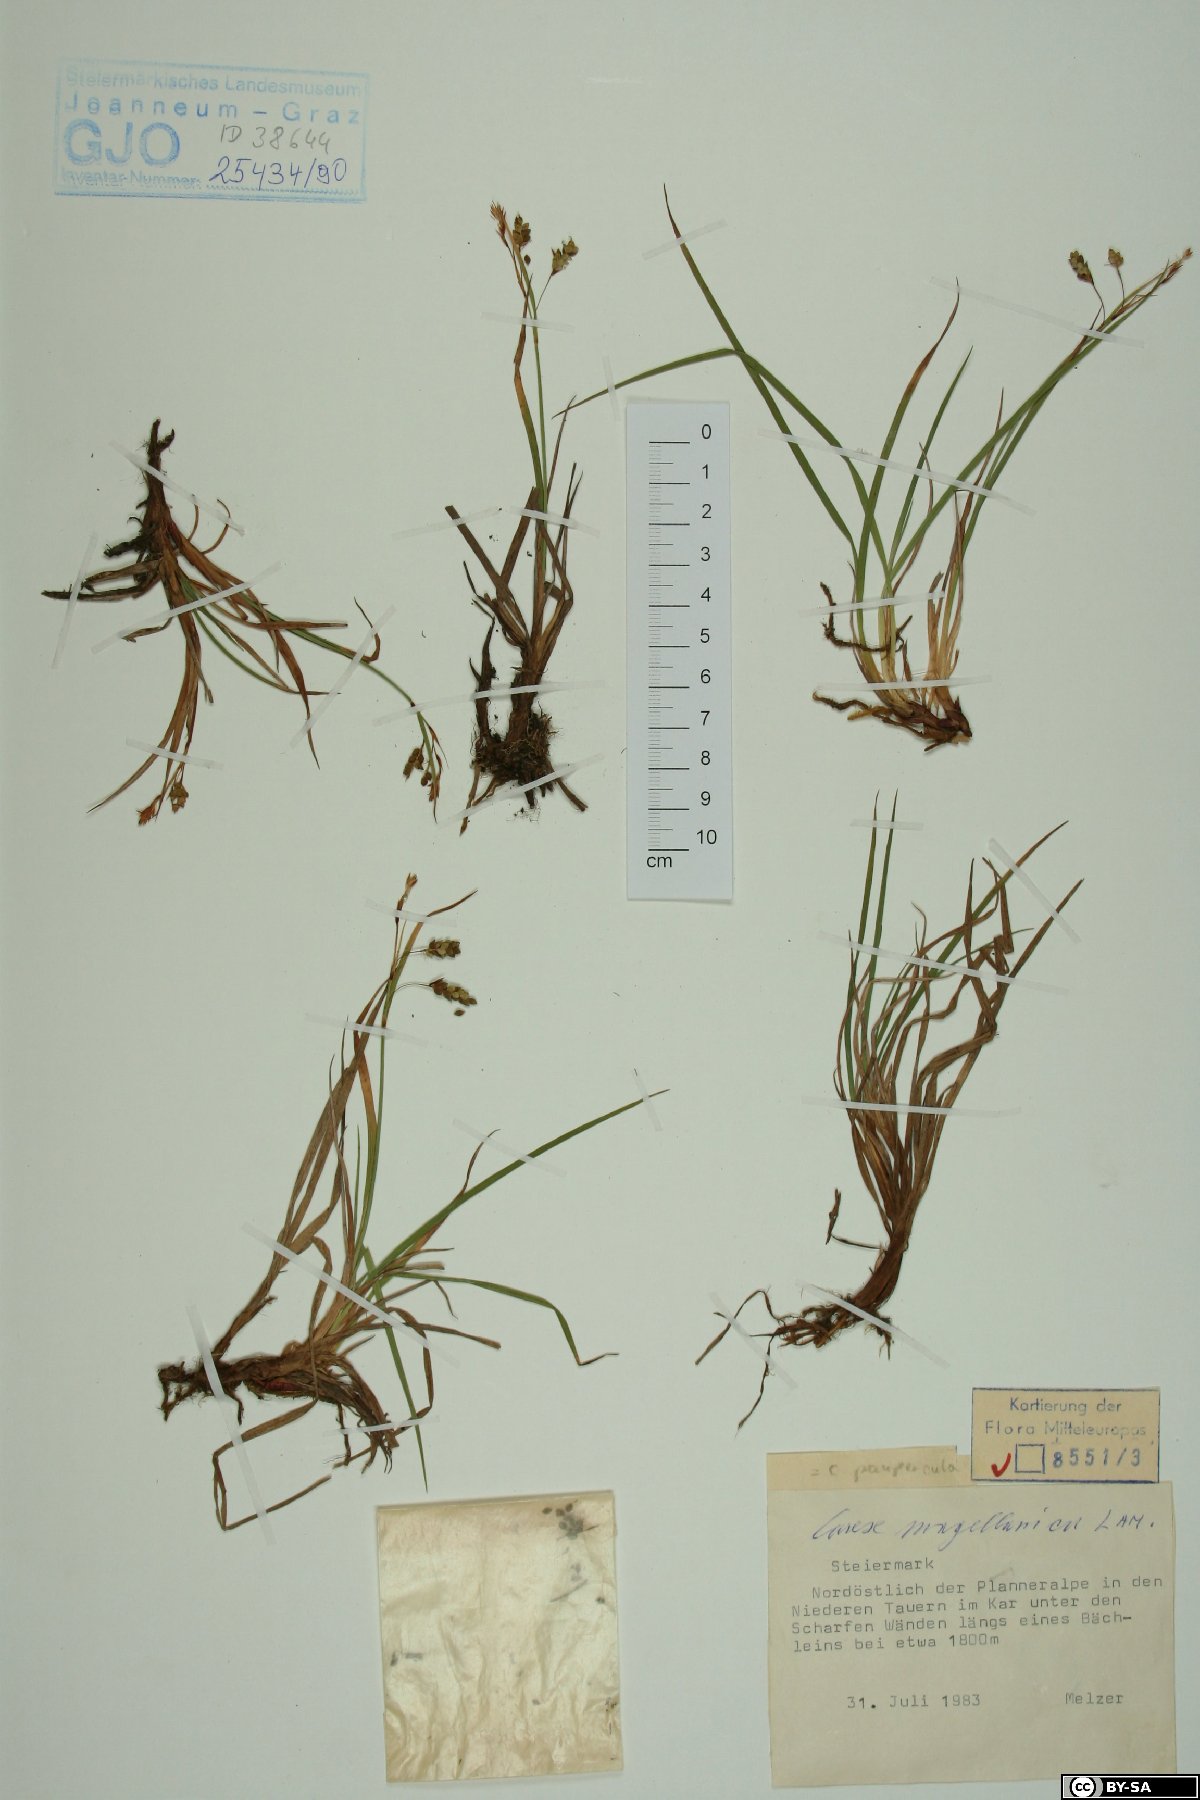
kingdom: Plantae
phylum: Tracheophyta
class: Liliopsida
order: Poales
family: Cyperaceae
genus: Carex
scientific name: Carex magellanica
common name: Bog sedge
